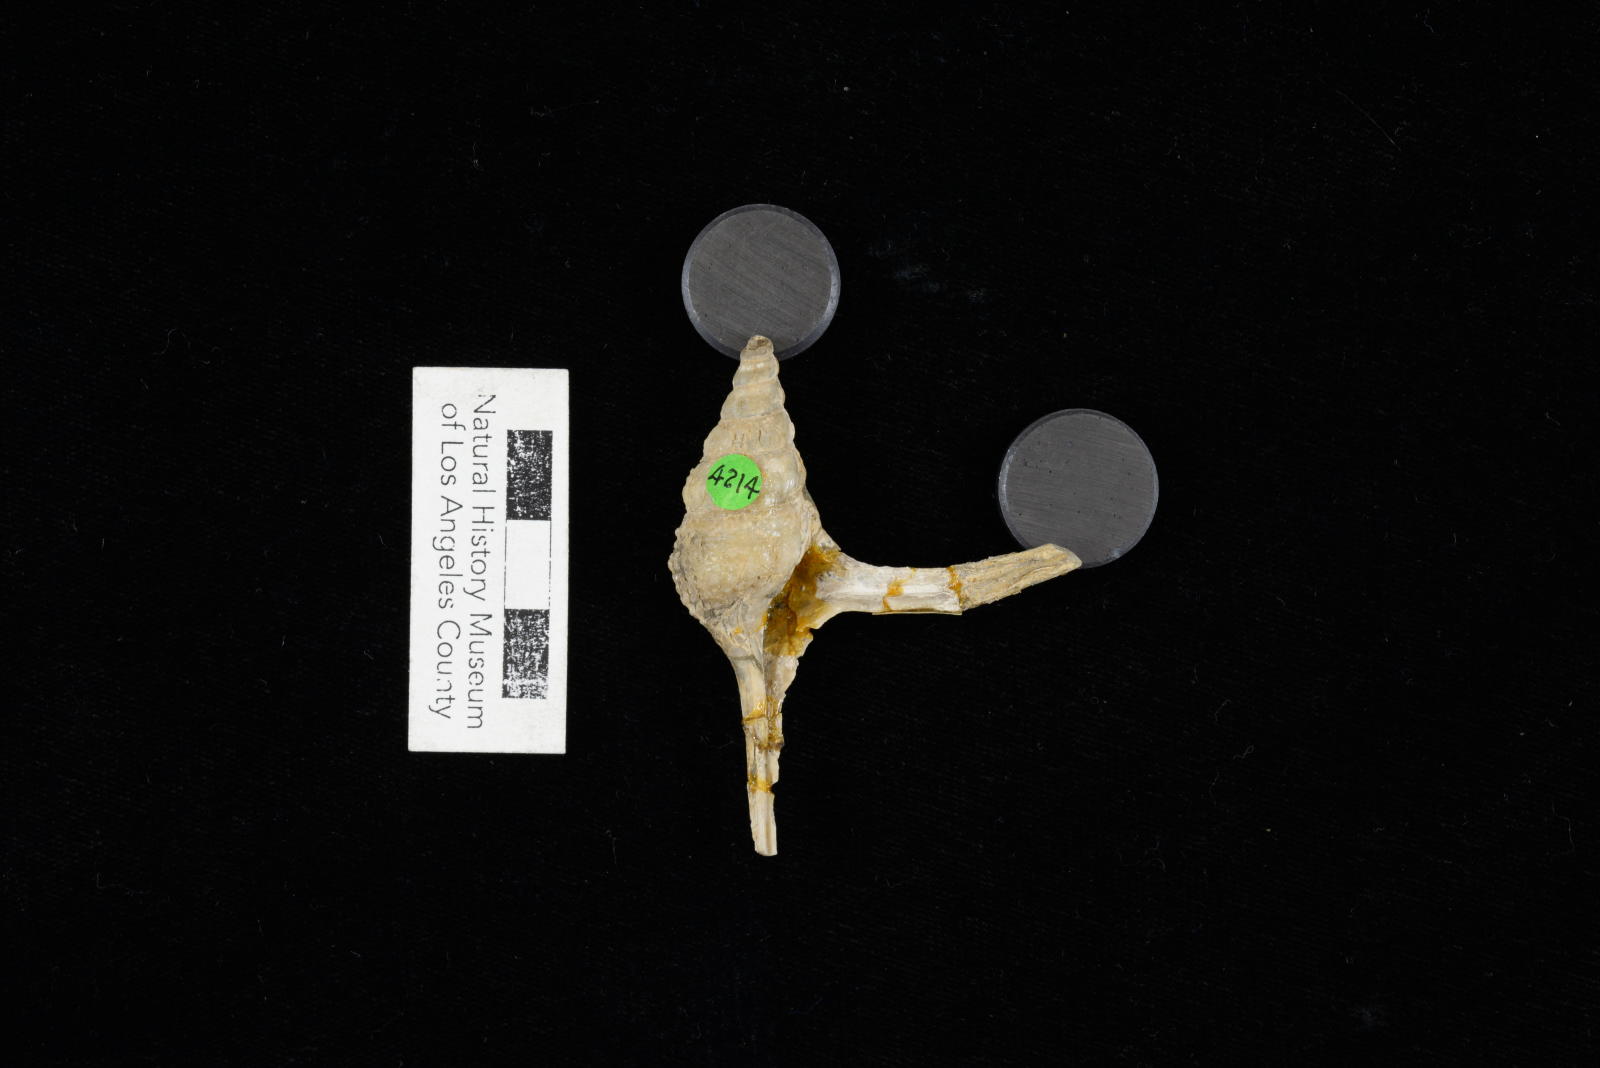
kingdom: Animalia
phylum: Mollusca
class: Gastropoda
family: Procerithiidae
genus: Procerithium
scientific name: Procerithium Uchauxia beali
